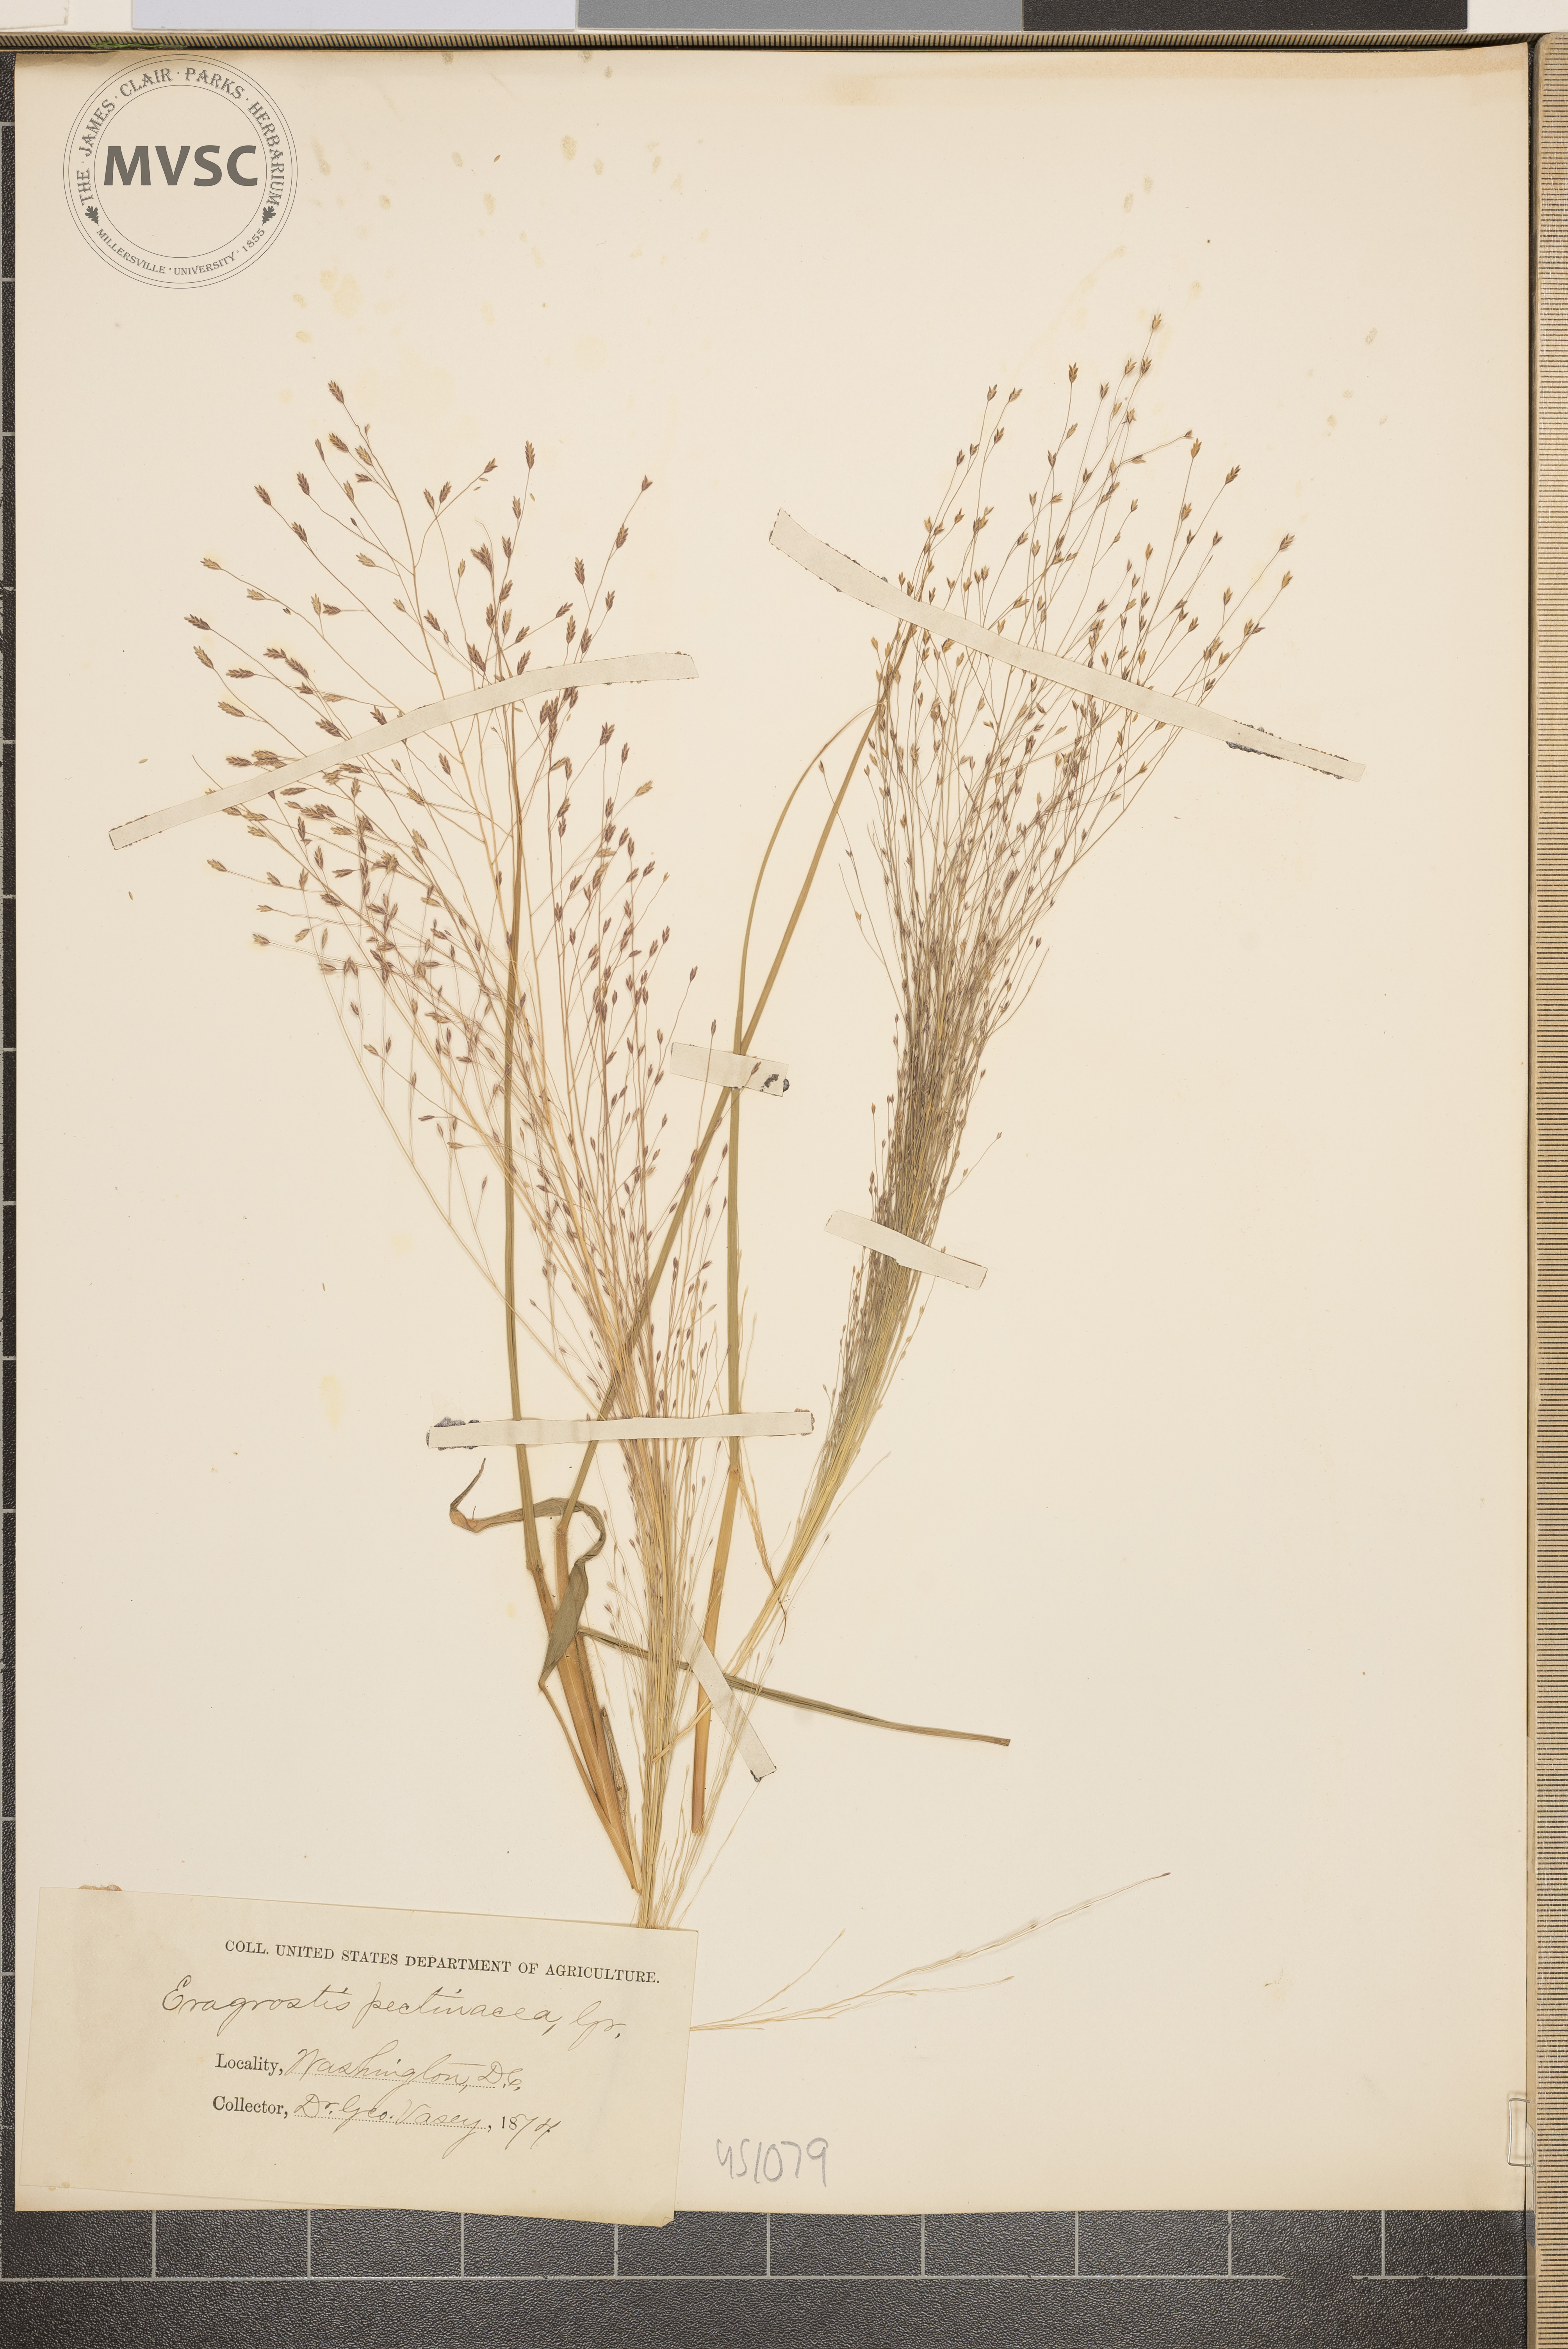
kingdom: Plantae
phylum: Tracheophyta
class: Liliopsida
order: Poales
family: Poaceae
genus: Eragrostis
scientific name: Eragrostis spectabilis
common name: Petticoat-climber
